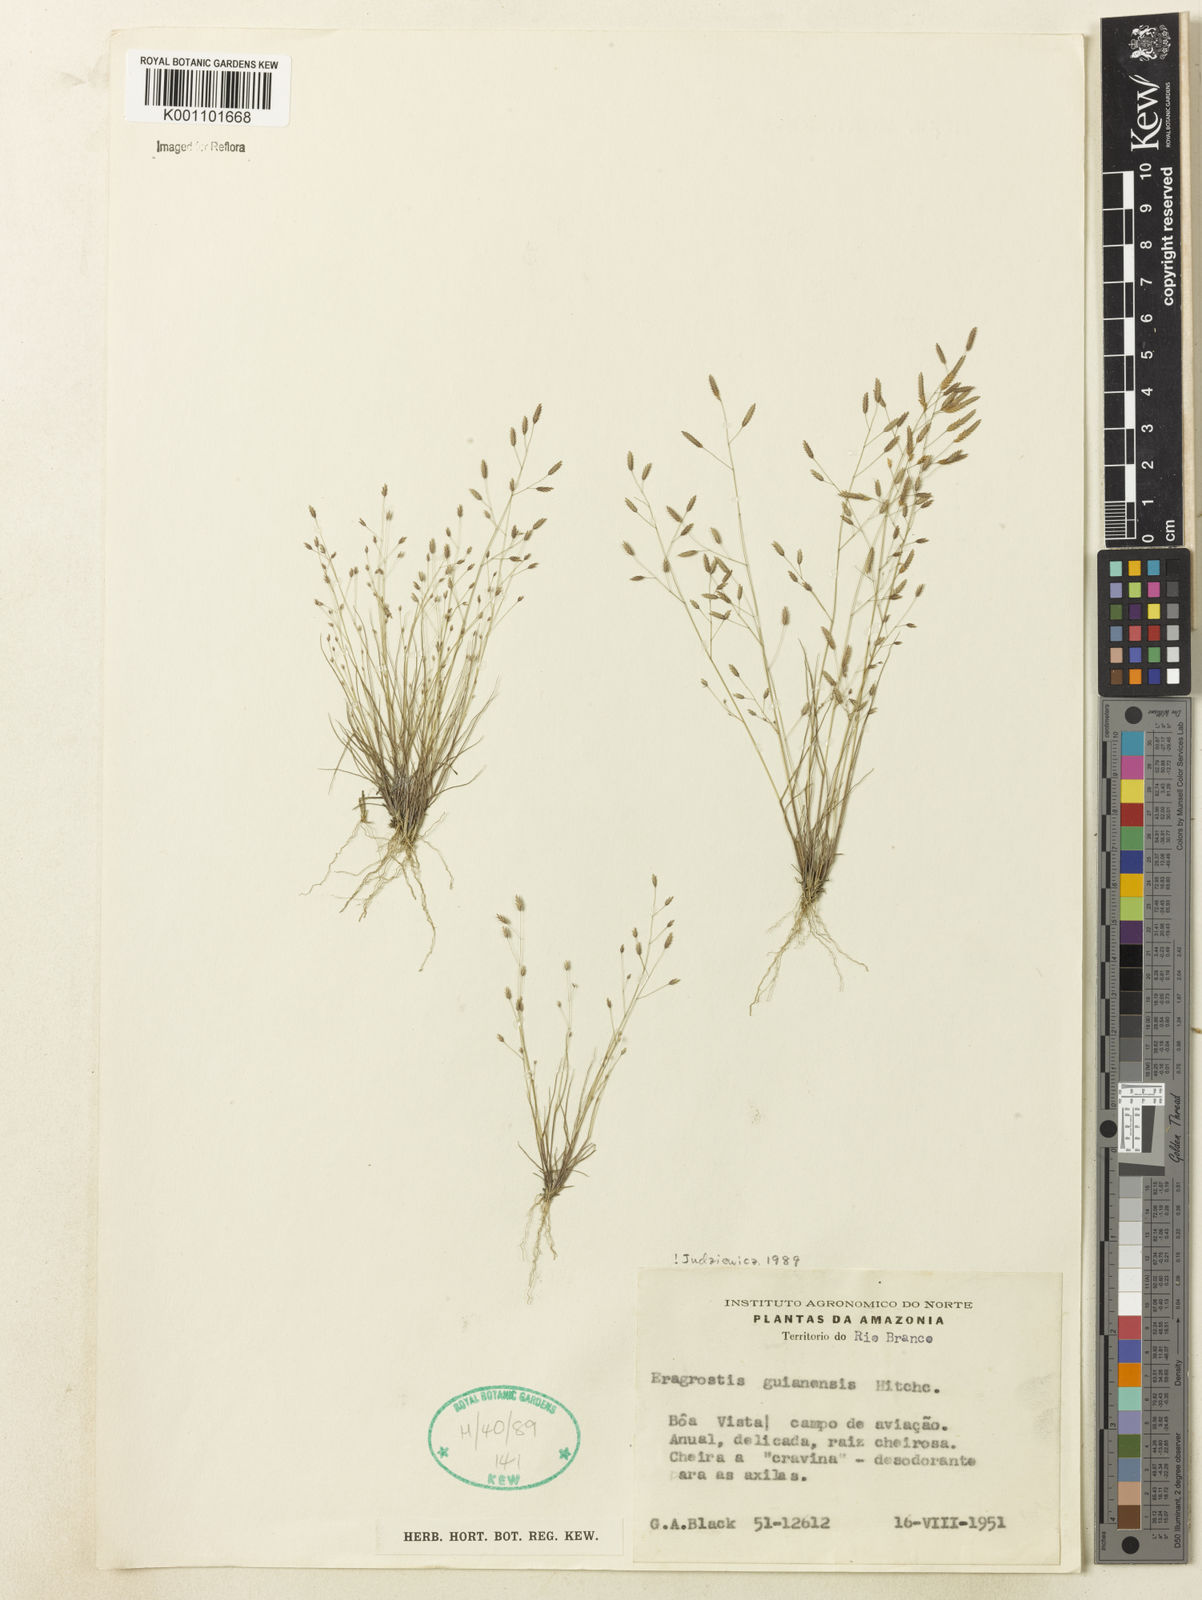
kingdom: Plantae
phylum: Tracheophyta
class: Liliopsida
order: Poales
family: Poaceae
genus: Eragrostis
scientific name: Eragrostis guianensis
